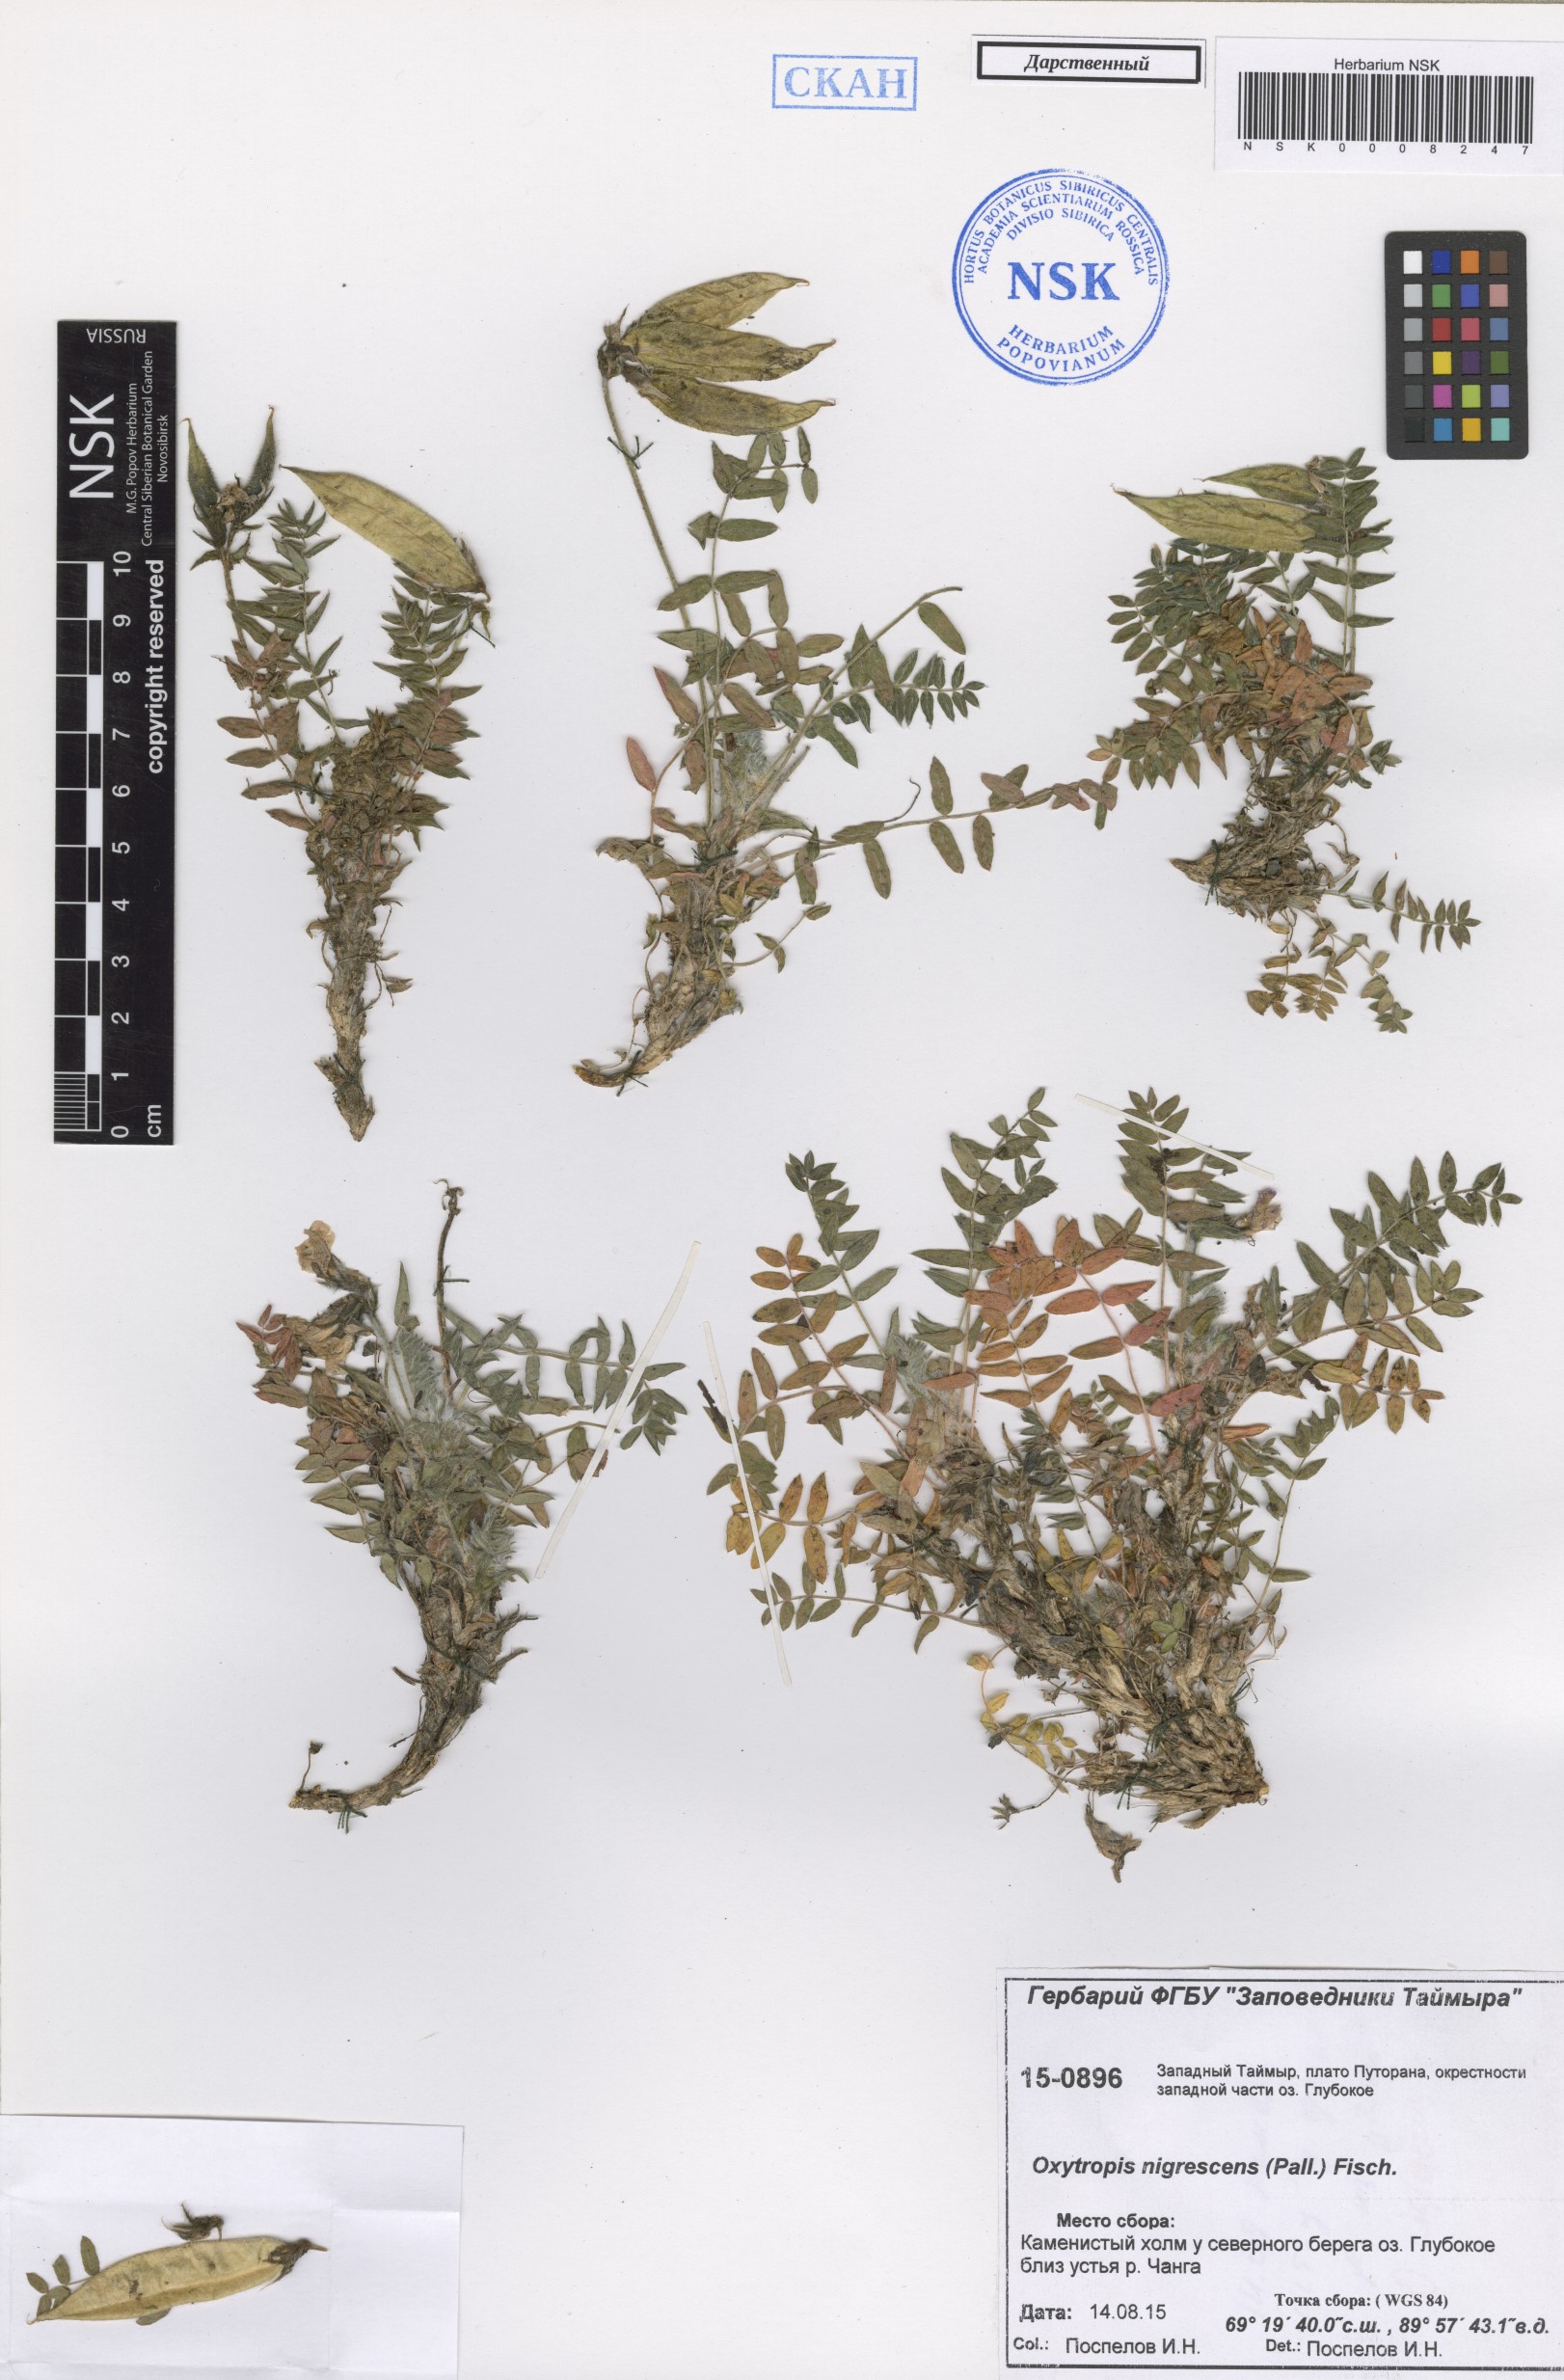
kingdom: Plantae
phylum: Tracheophyta
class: Magnoliopsida
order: Fabales
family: Fabaceae
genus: Oxytropis
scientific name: Oxytropis nigrescens
